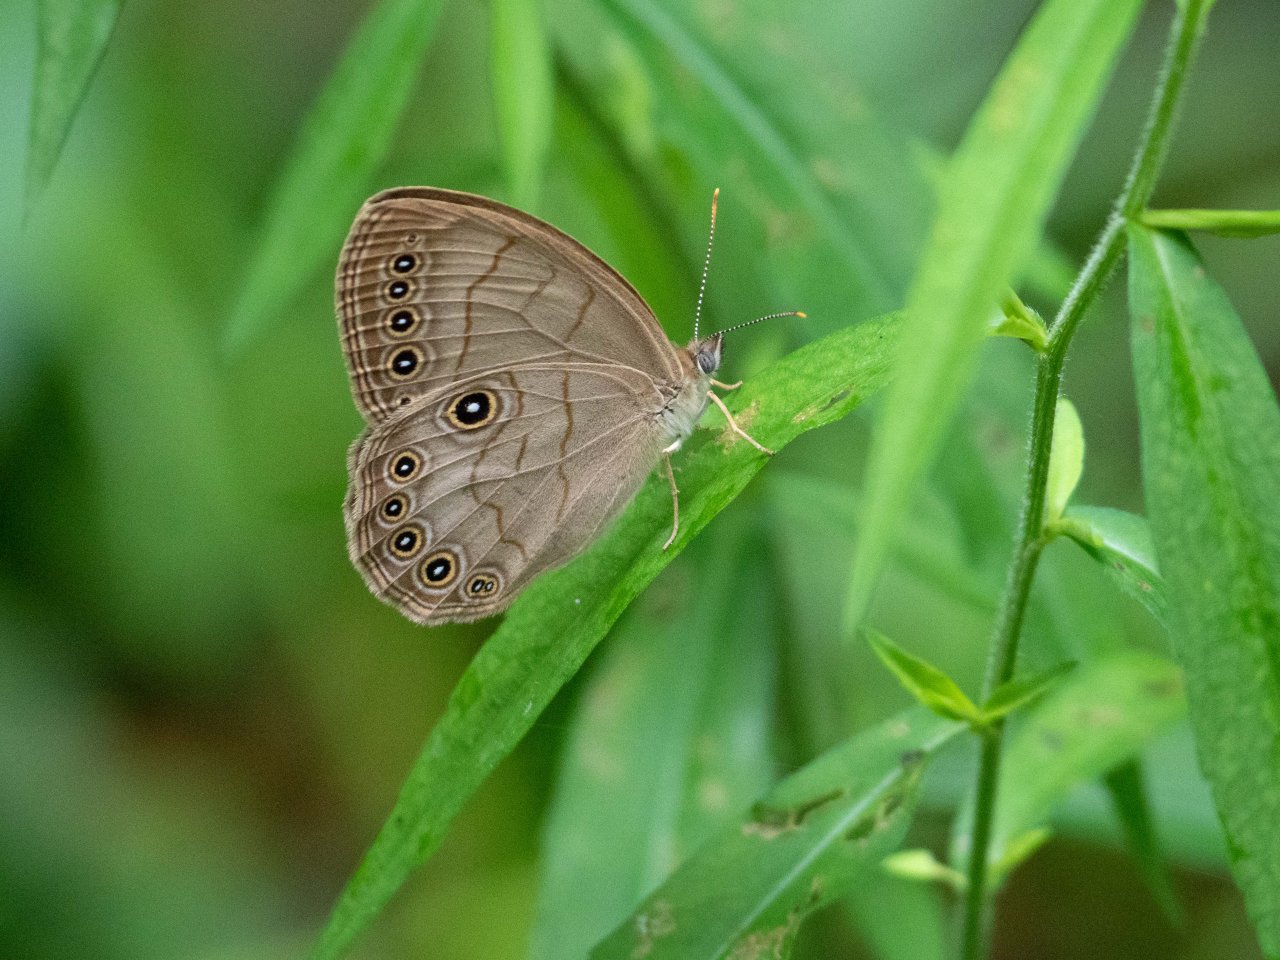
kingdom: Animalia
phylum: Arthropoda
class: Insecta
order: Lepidoptera
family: Nymphalidae
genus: Lethe
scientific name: Lethe eurydice
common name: Appalachian Eyed Brown
